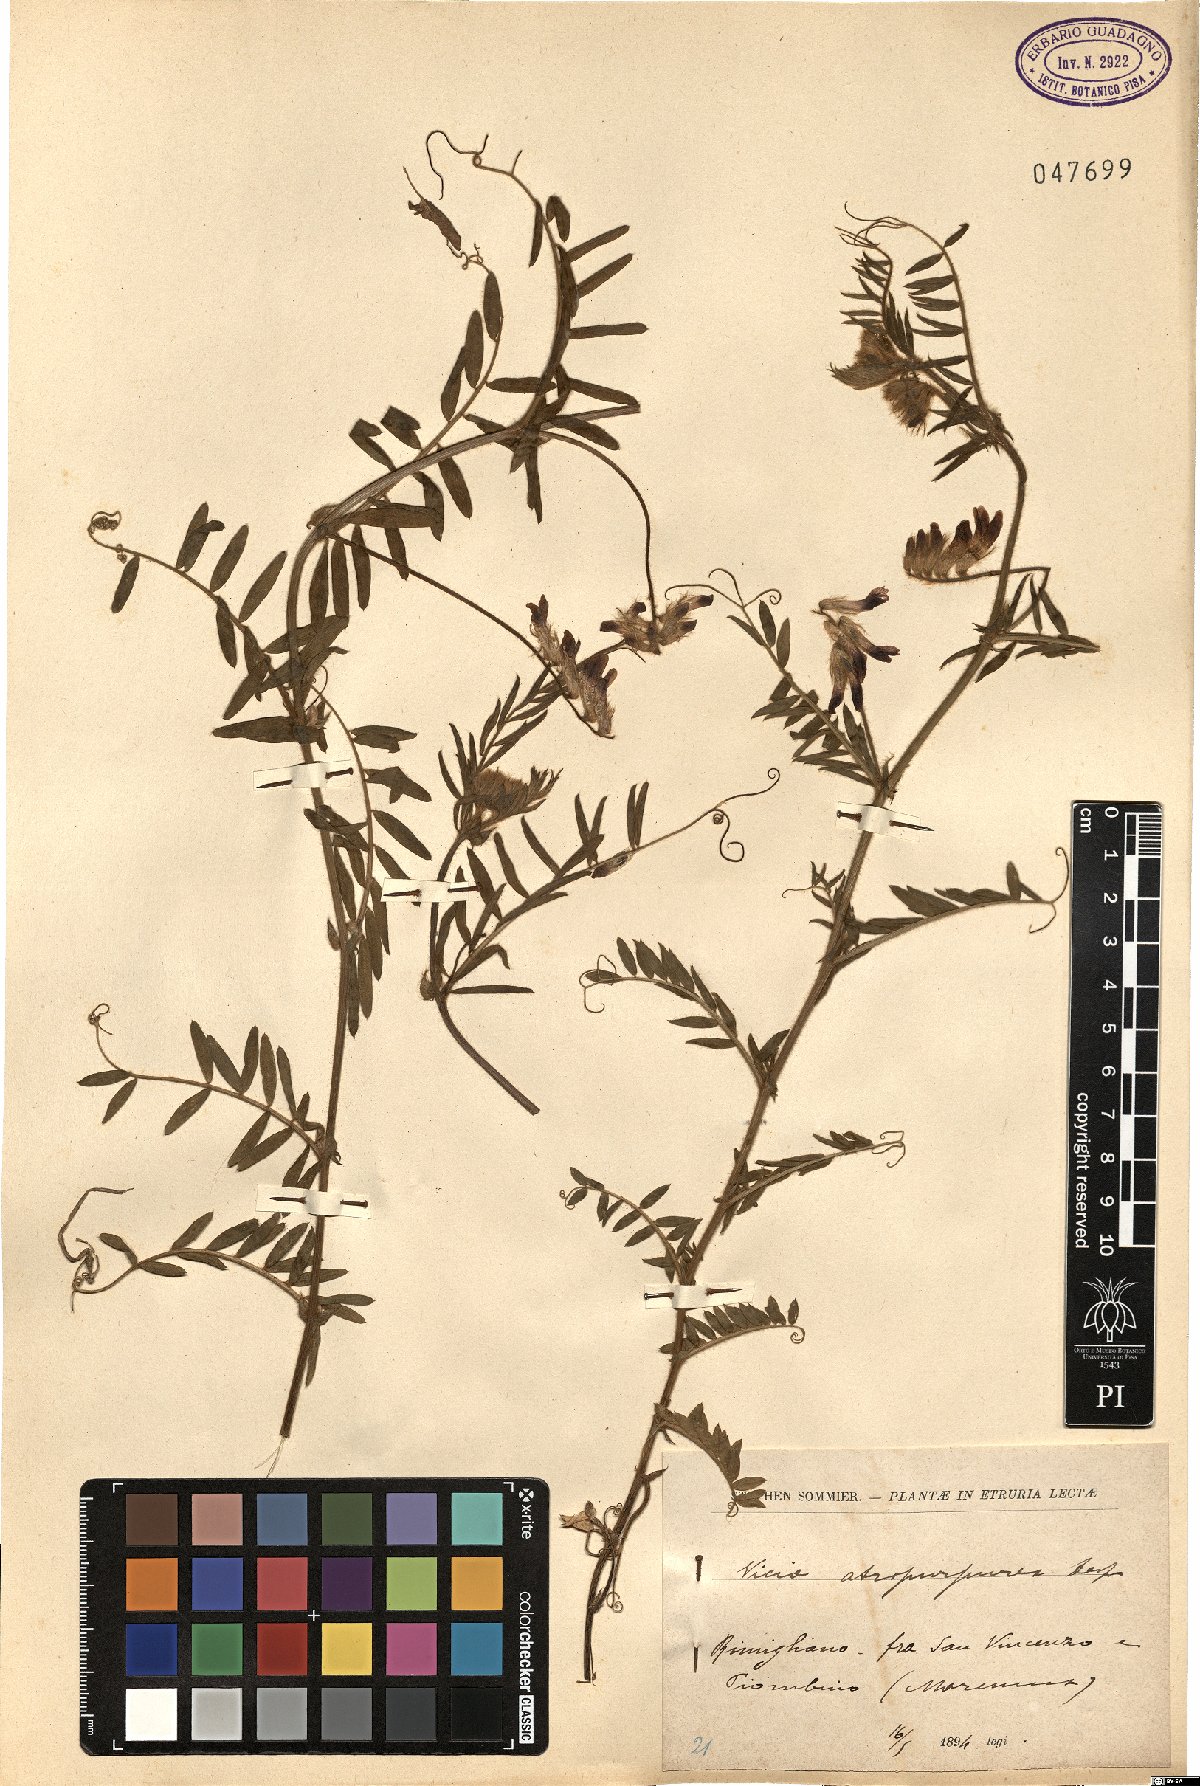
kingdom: Plantae
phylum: Tracheophyta
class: Magnoliopsida
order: Fabales
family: Fabaceae
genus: Vicia
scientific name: Vicia benghalensis
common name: Purple vetch
